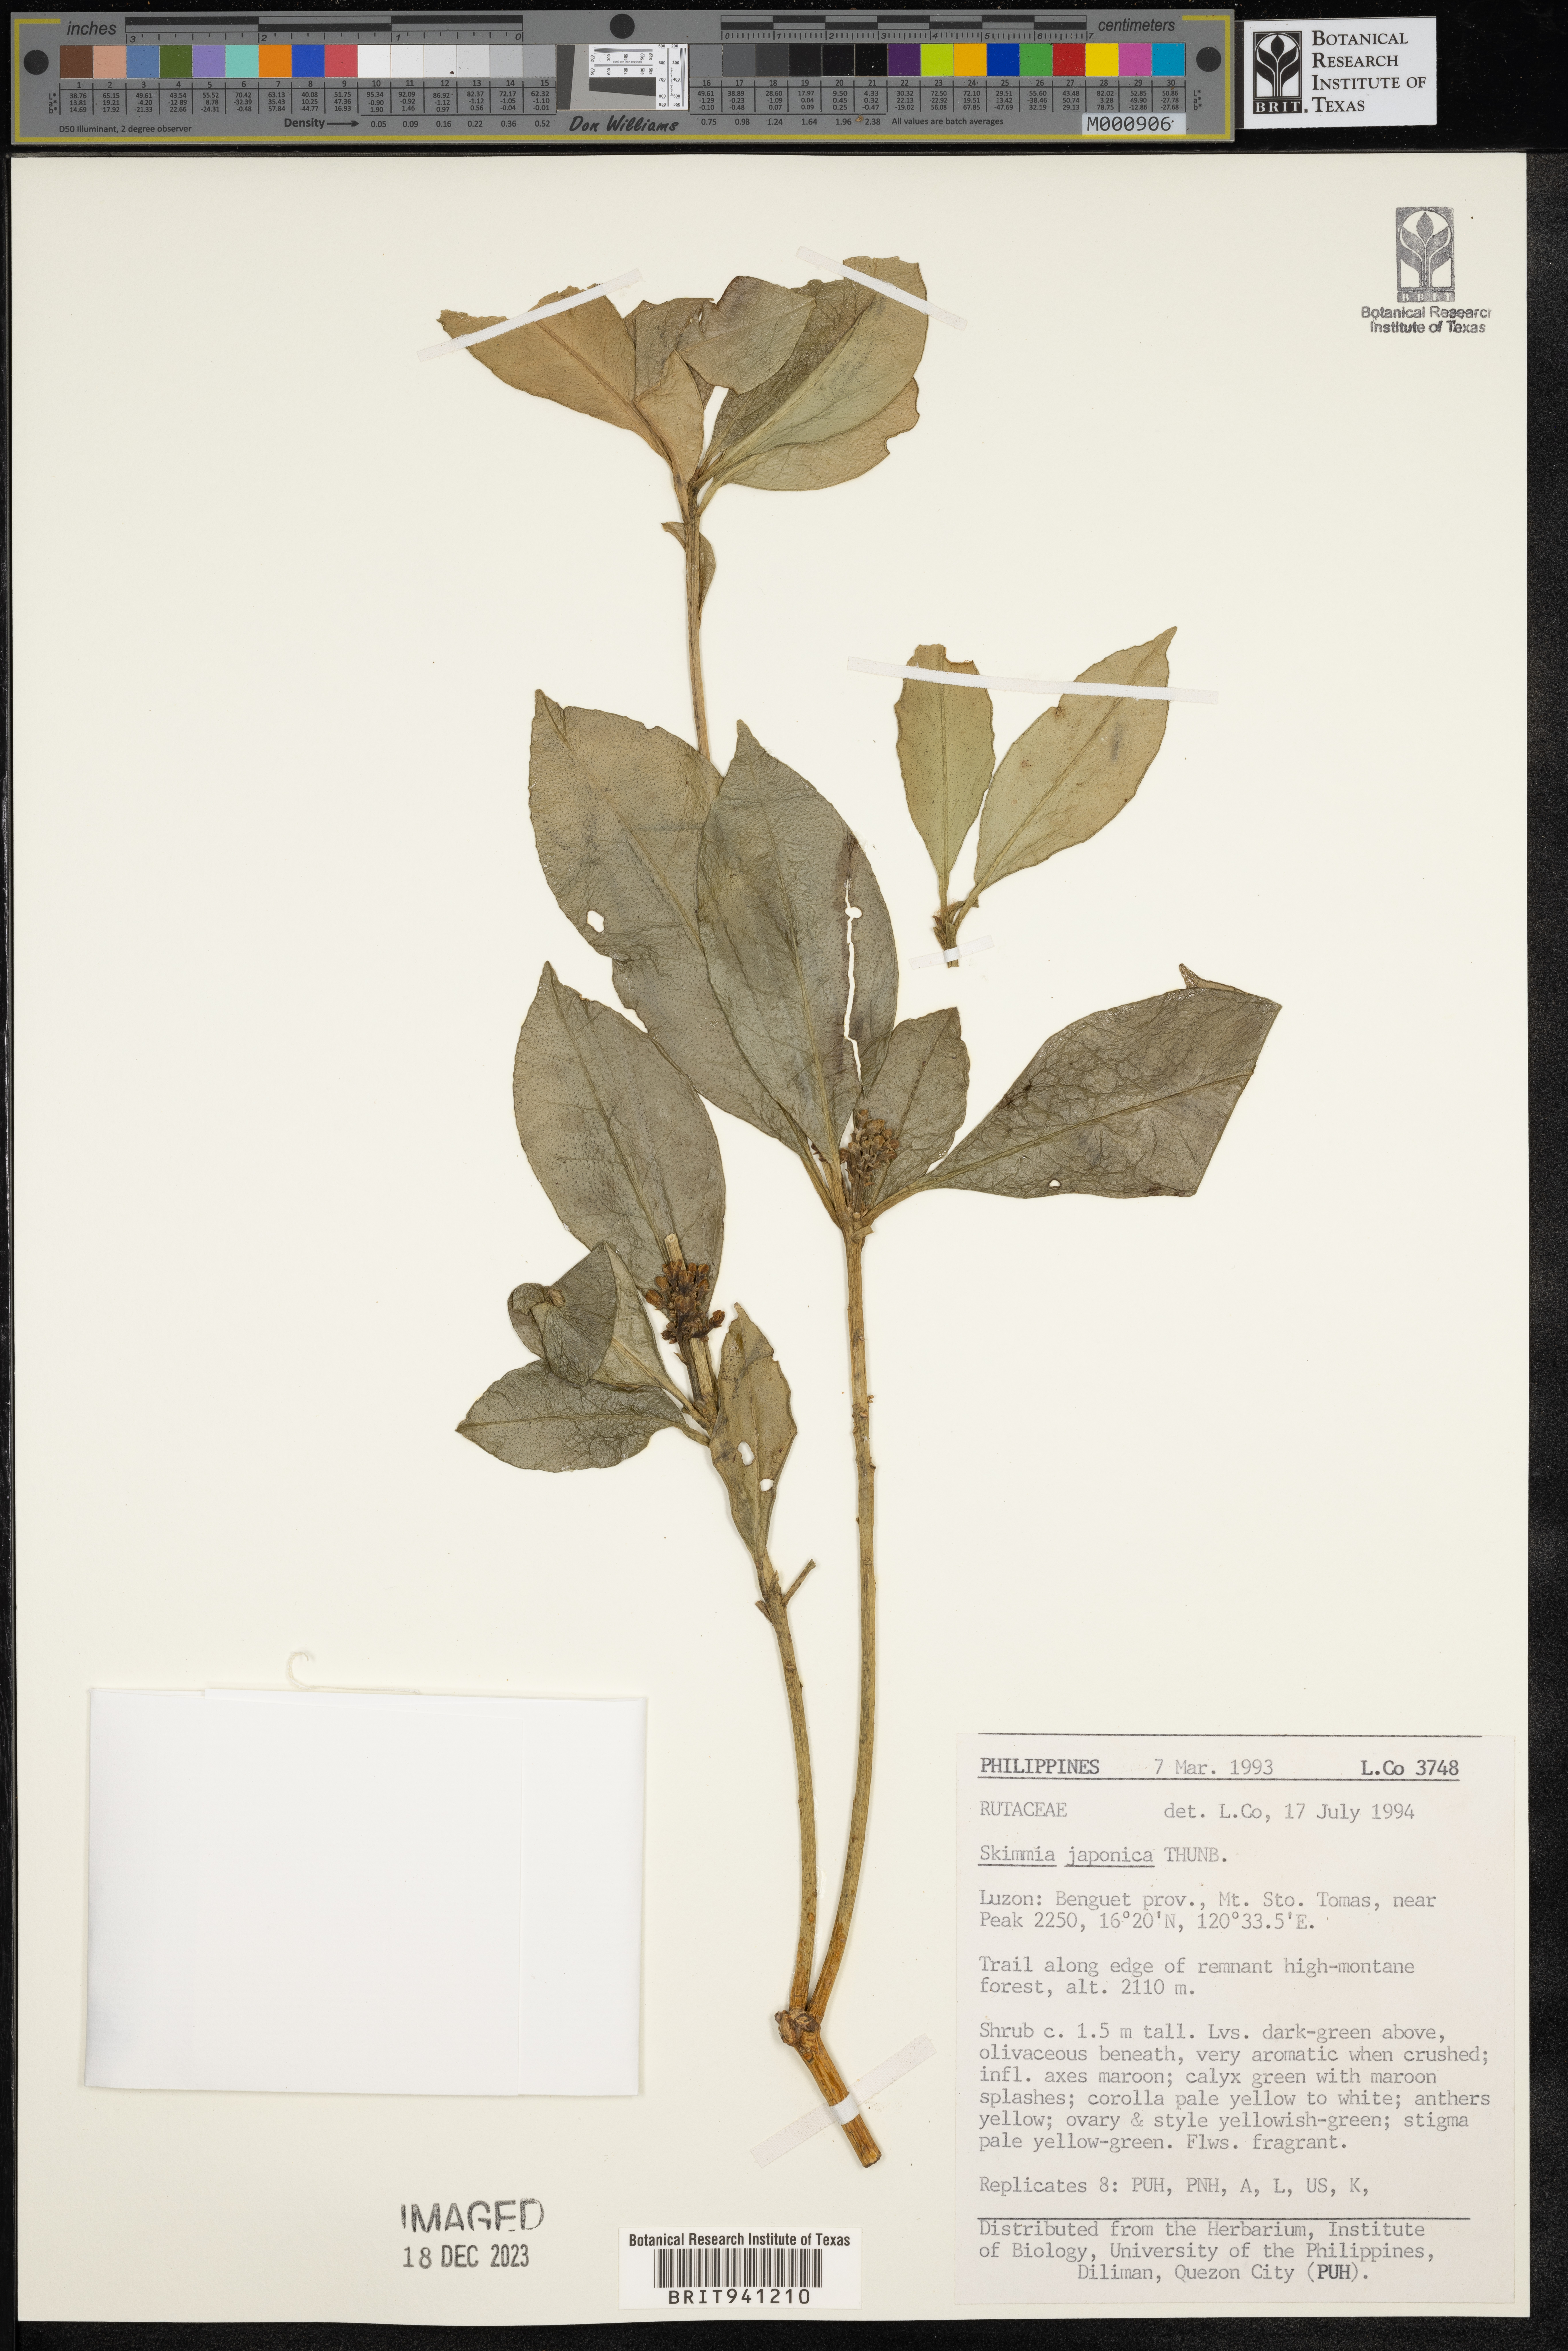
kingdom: Plantae
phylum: Tracheophyta
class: Magnoliopsida
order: Sapindales
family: Rutaceae
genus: Skimmia
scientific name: Skimmia
